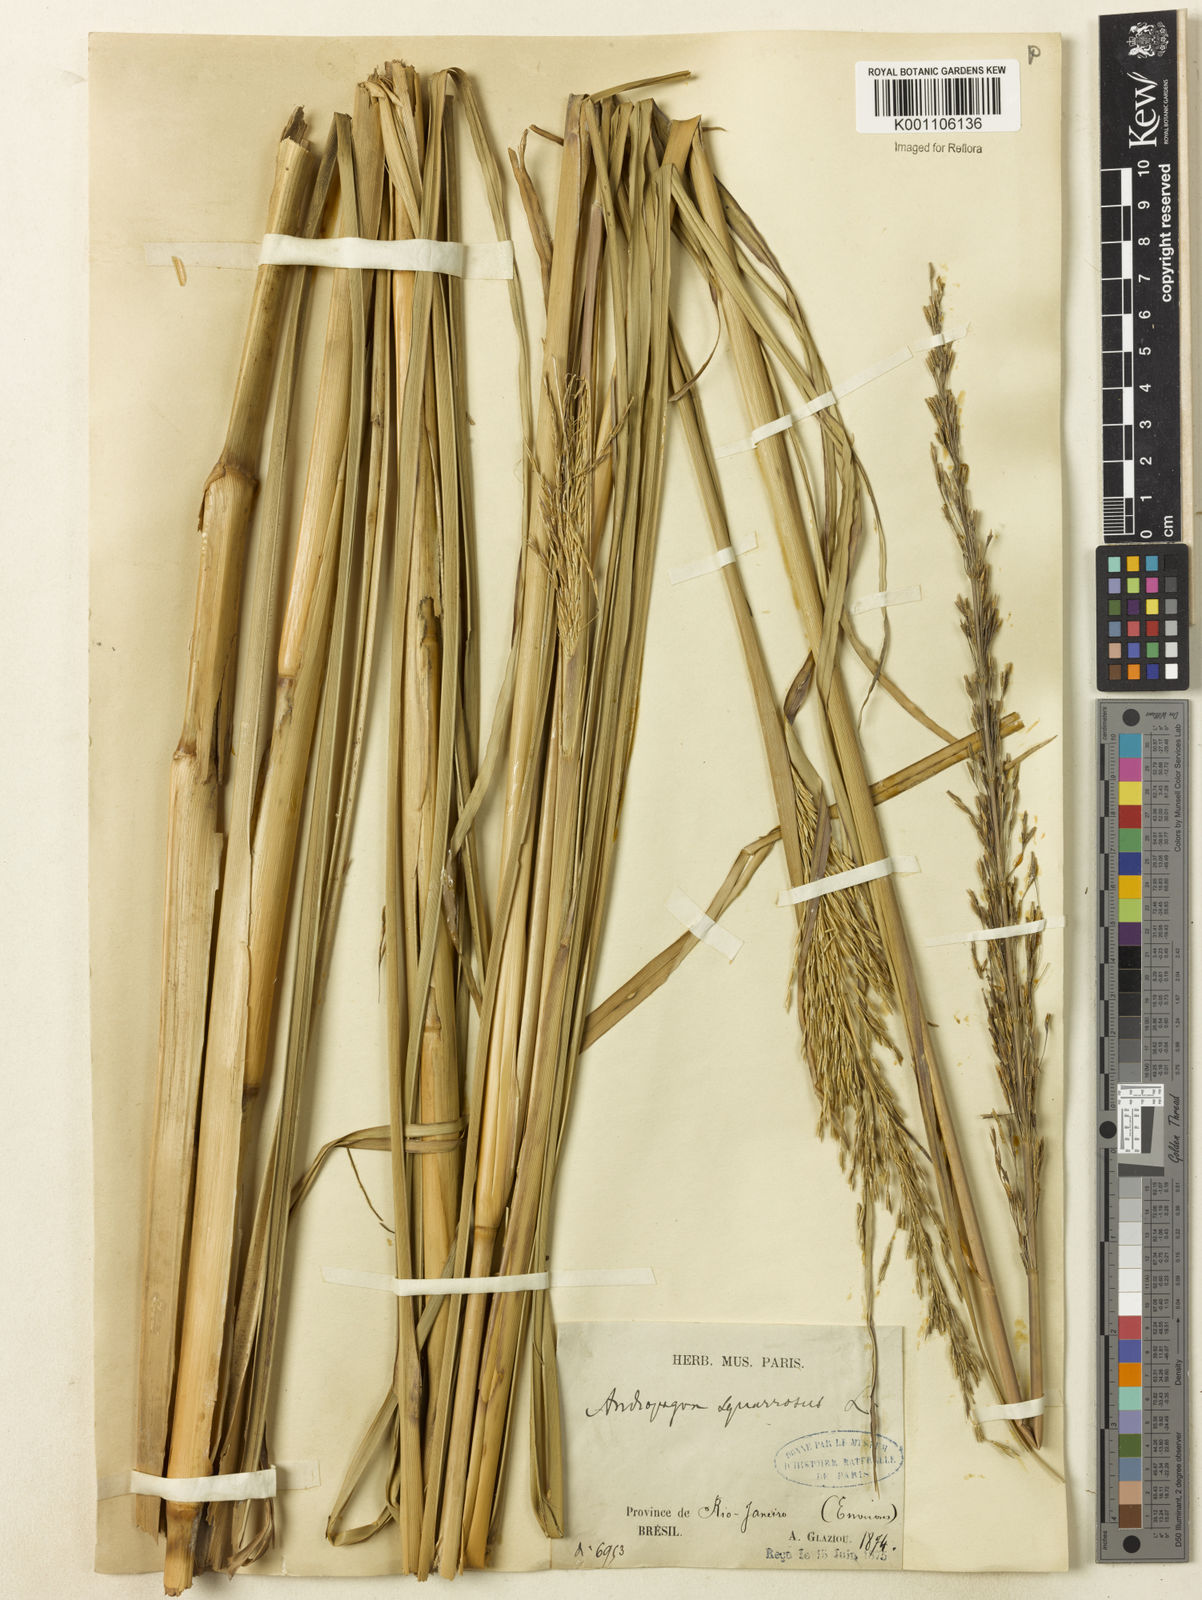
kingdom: Plantae
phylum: Tracheophyta
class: Liliopsida
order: Poales
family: Poaceae
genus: Chrysopogon
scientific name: Chrysopogon zizanioides
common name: False beardgrass
